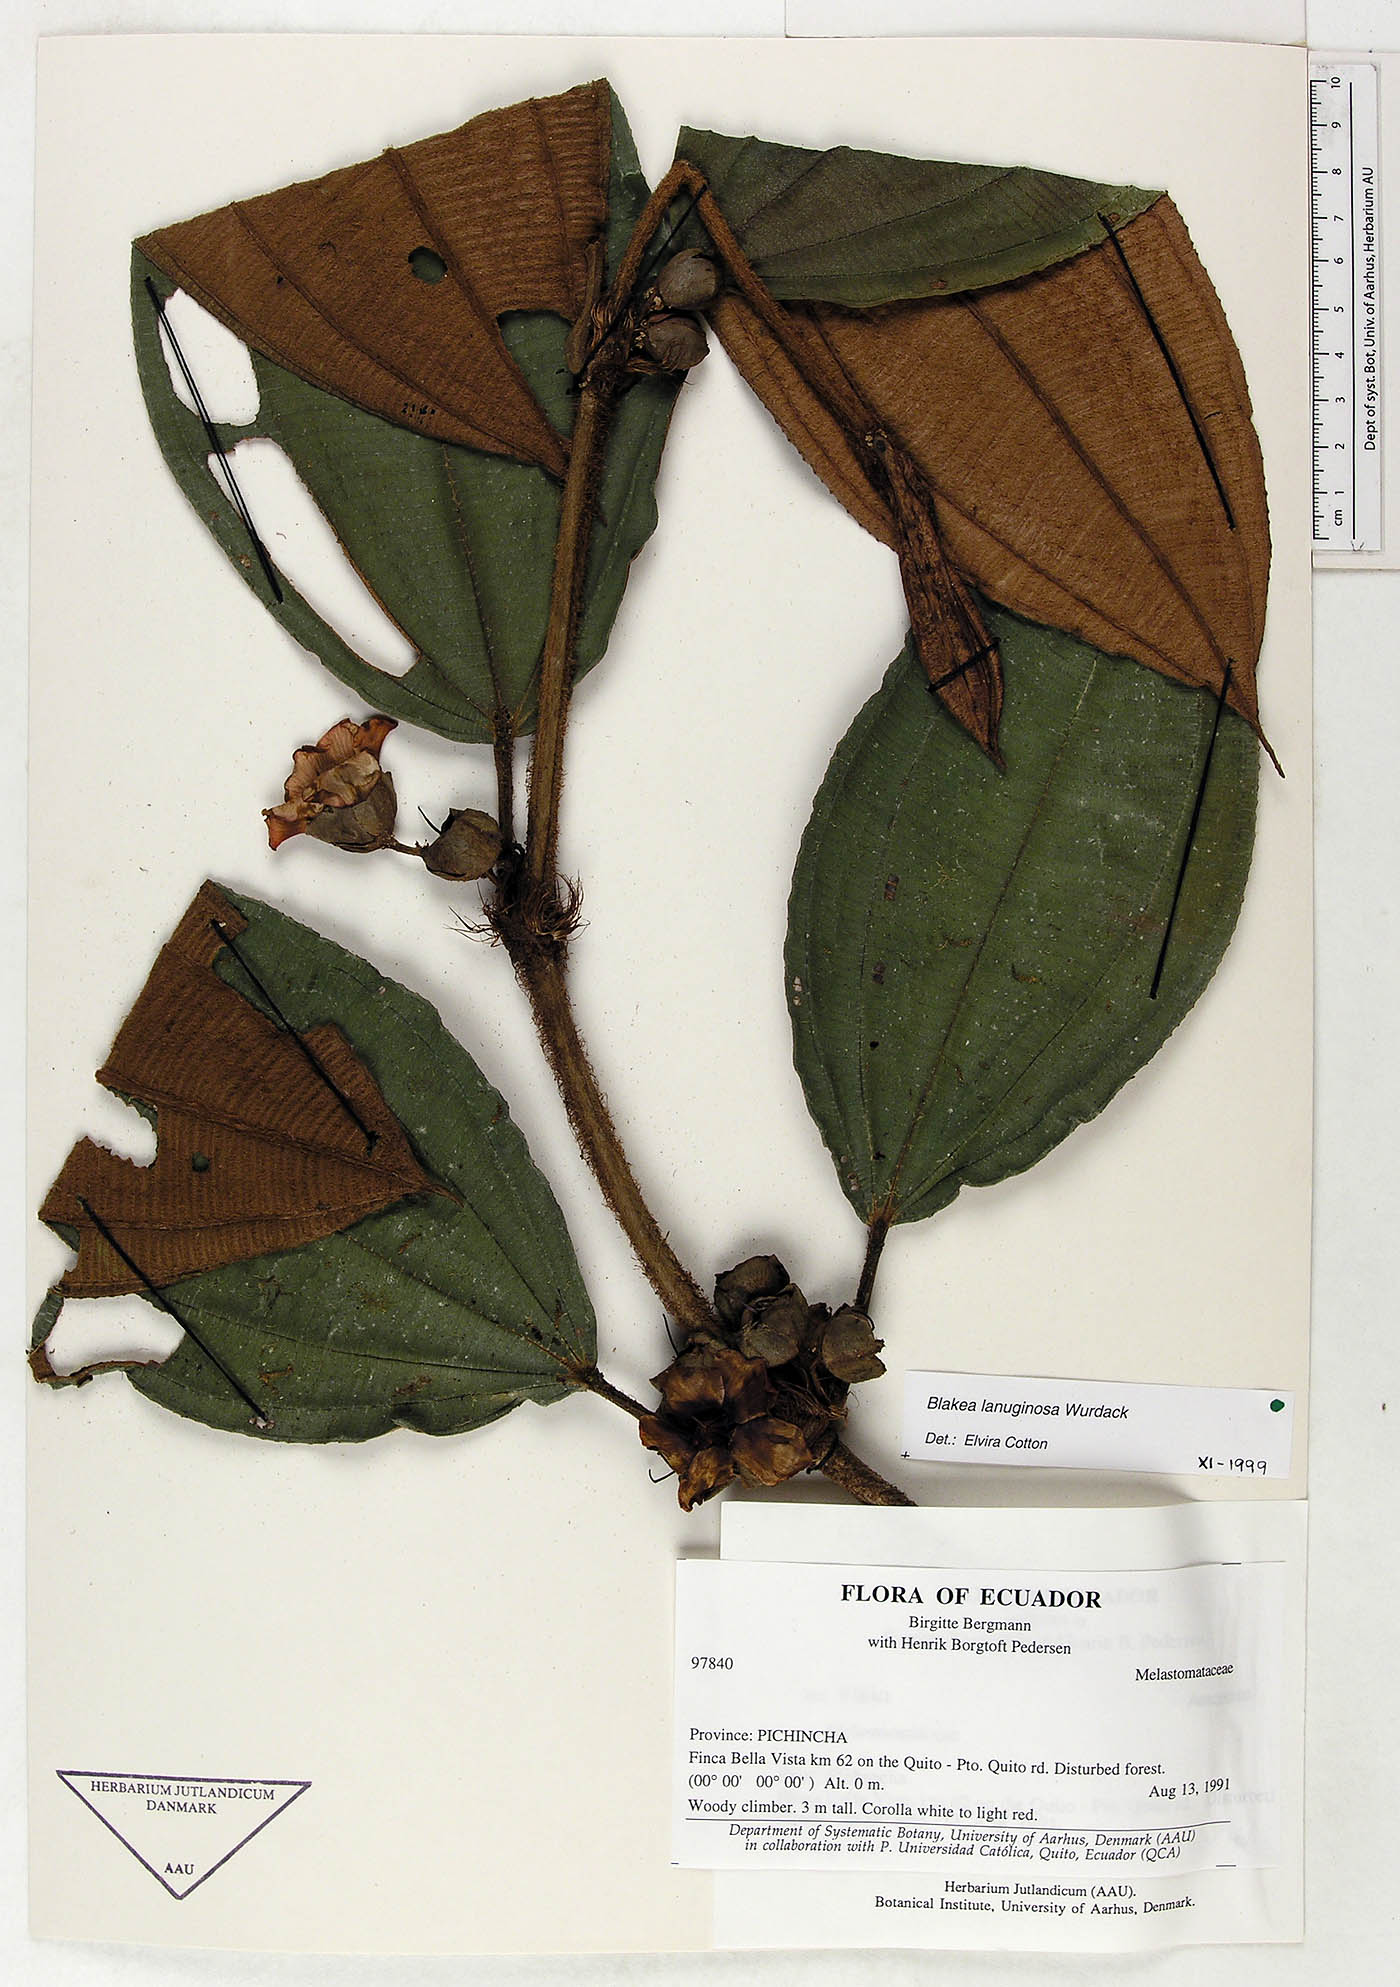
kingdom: Plantae
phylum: Tracheophyta
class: Magnoliopsida
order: Myrtales
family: Melastomataceae
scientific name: Melastomataceae
